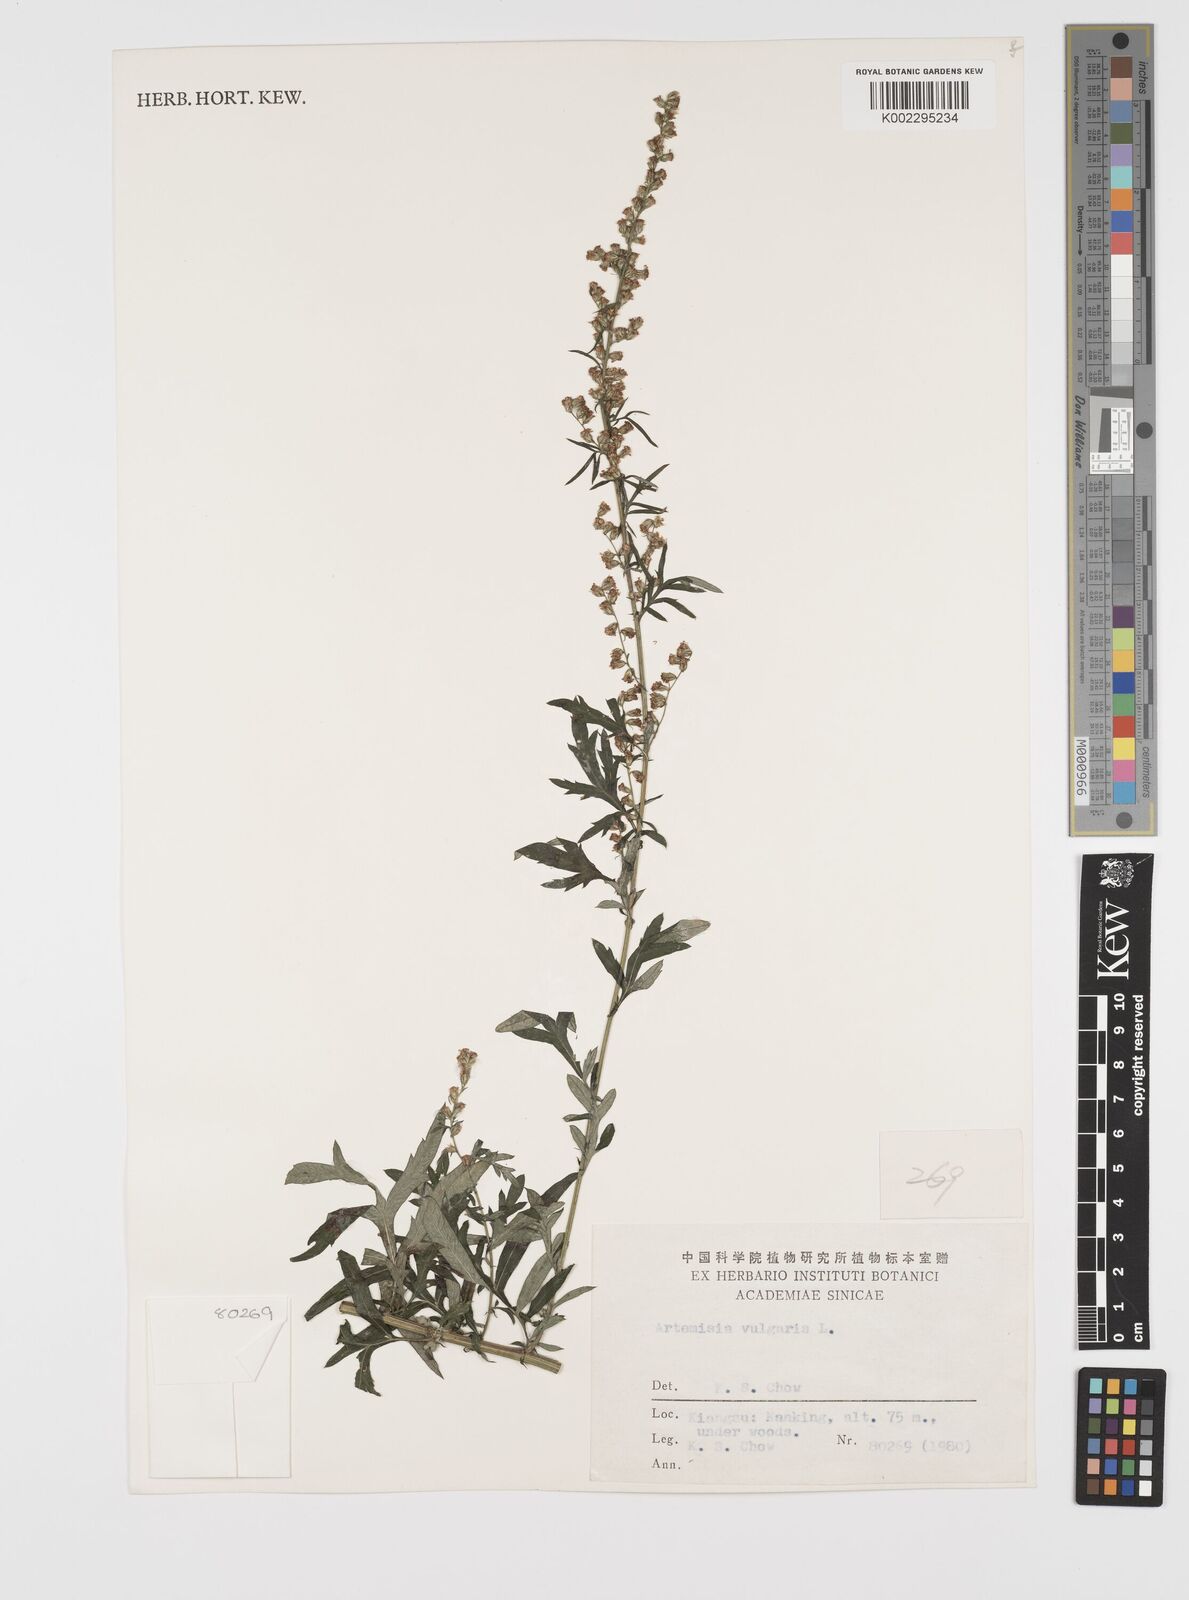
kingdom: Plantae
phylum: Tracheophyta
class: Magnoliopsida
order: Asterales
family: Asteraceae
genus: Artemisia
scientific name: Artemisia
